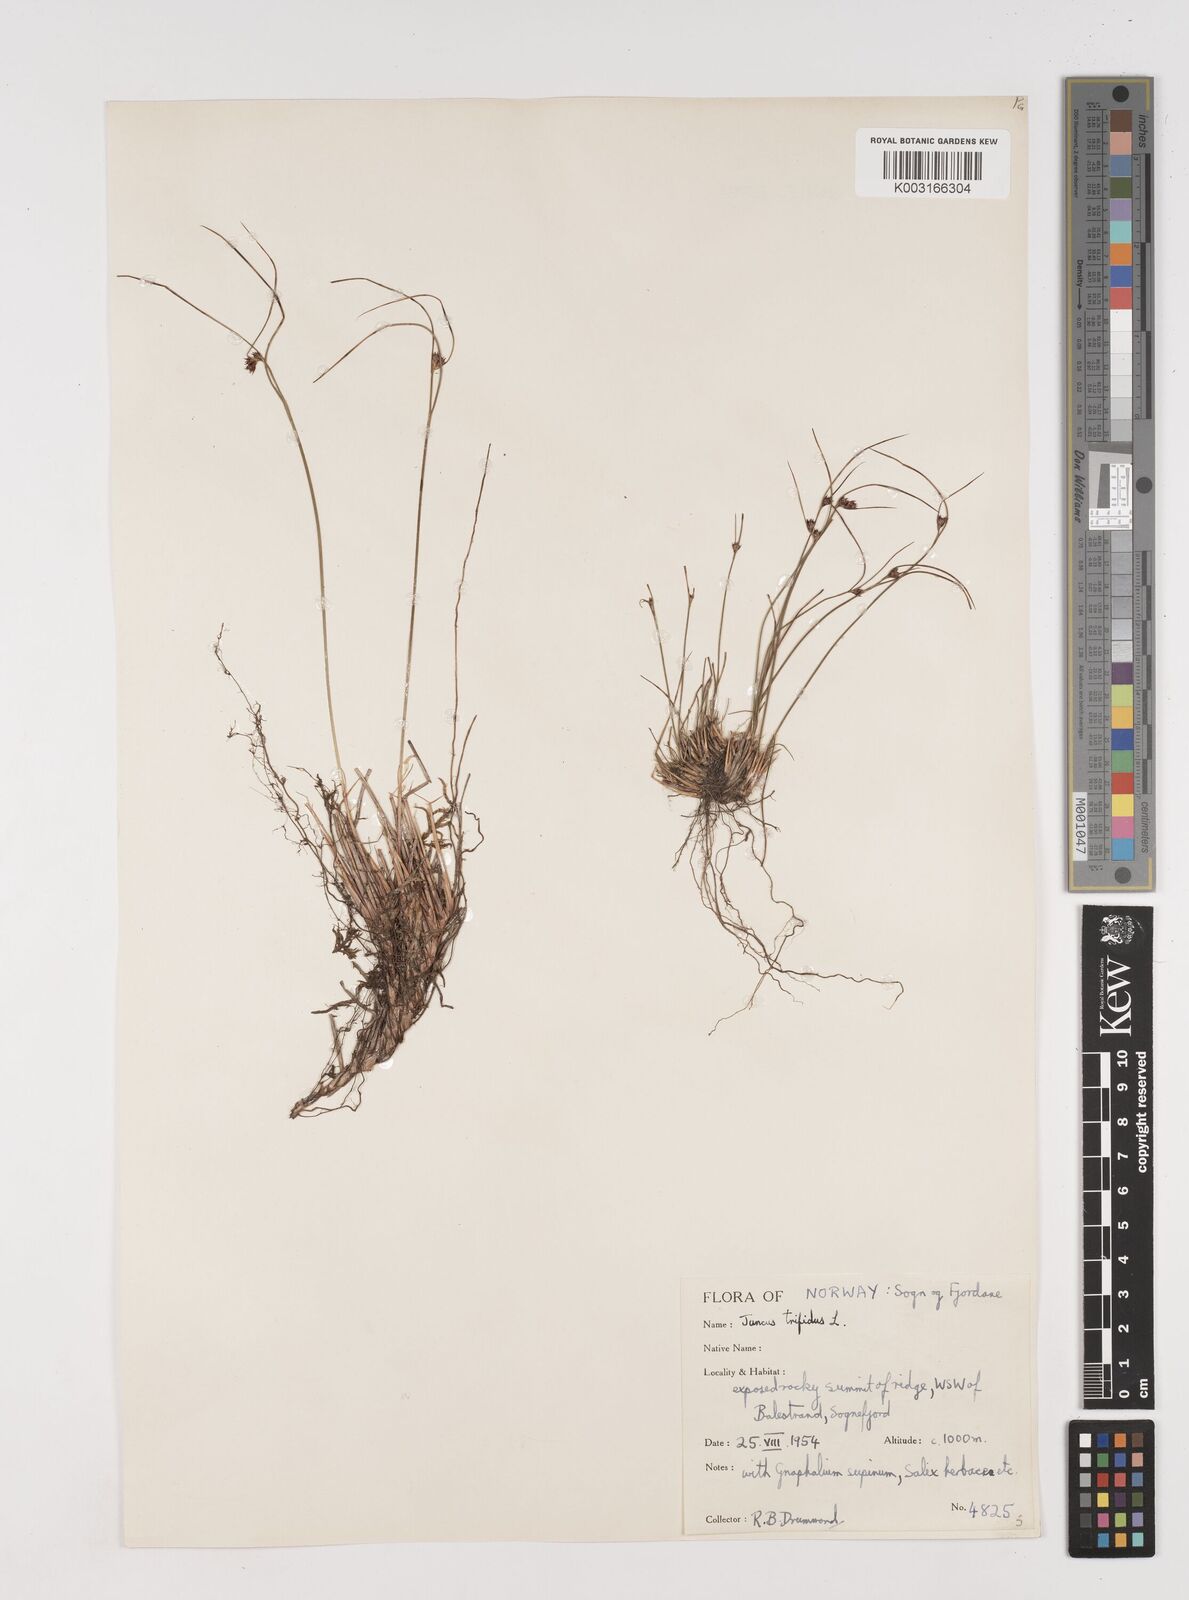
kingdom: Plantae
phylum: Tracheophyta
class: Liliopsida
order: Poales
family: Juncaceae
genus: Oreojuncus
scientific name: Oreojuncus trifidus
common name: Highland rush
